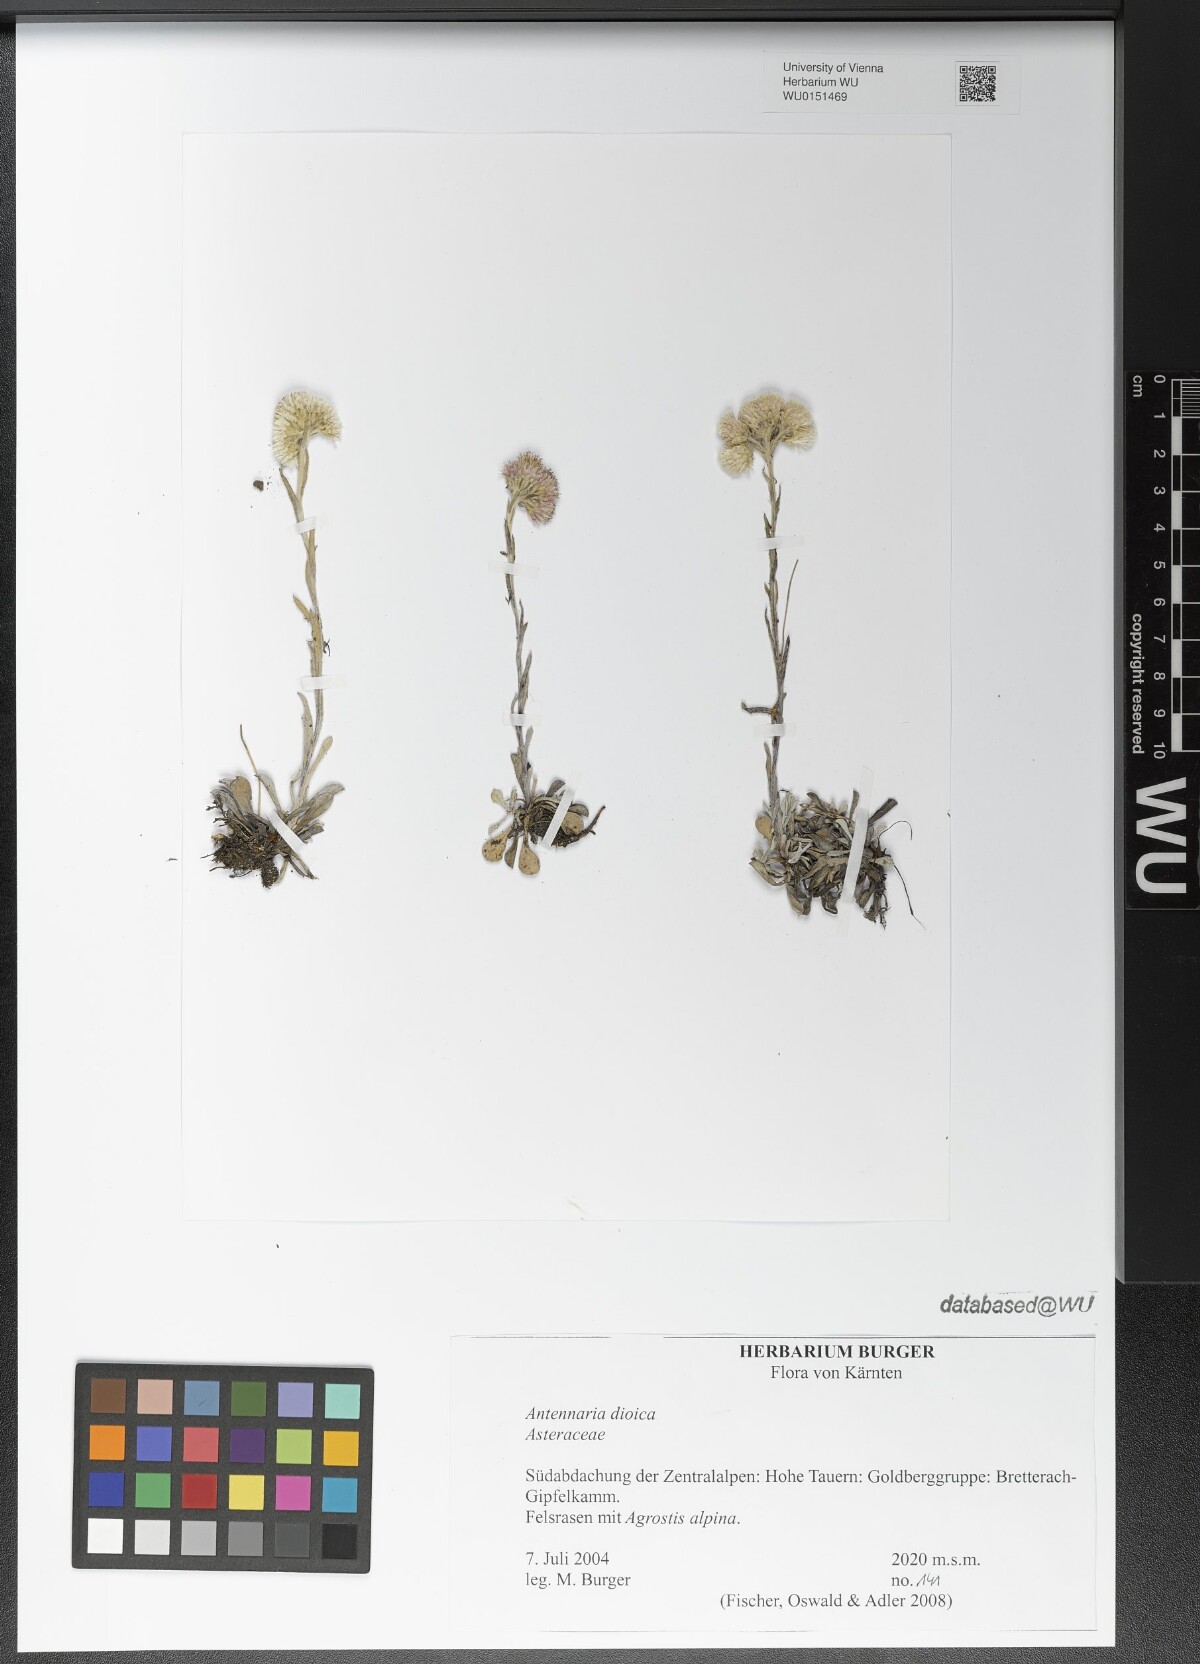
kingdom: Plantae
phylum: Tracheophyta
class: Magnoliopsida
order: Asterales
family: Asteraceae
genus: Antennaria
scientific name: Antennaria dioica
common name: Mountain everlasting
